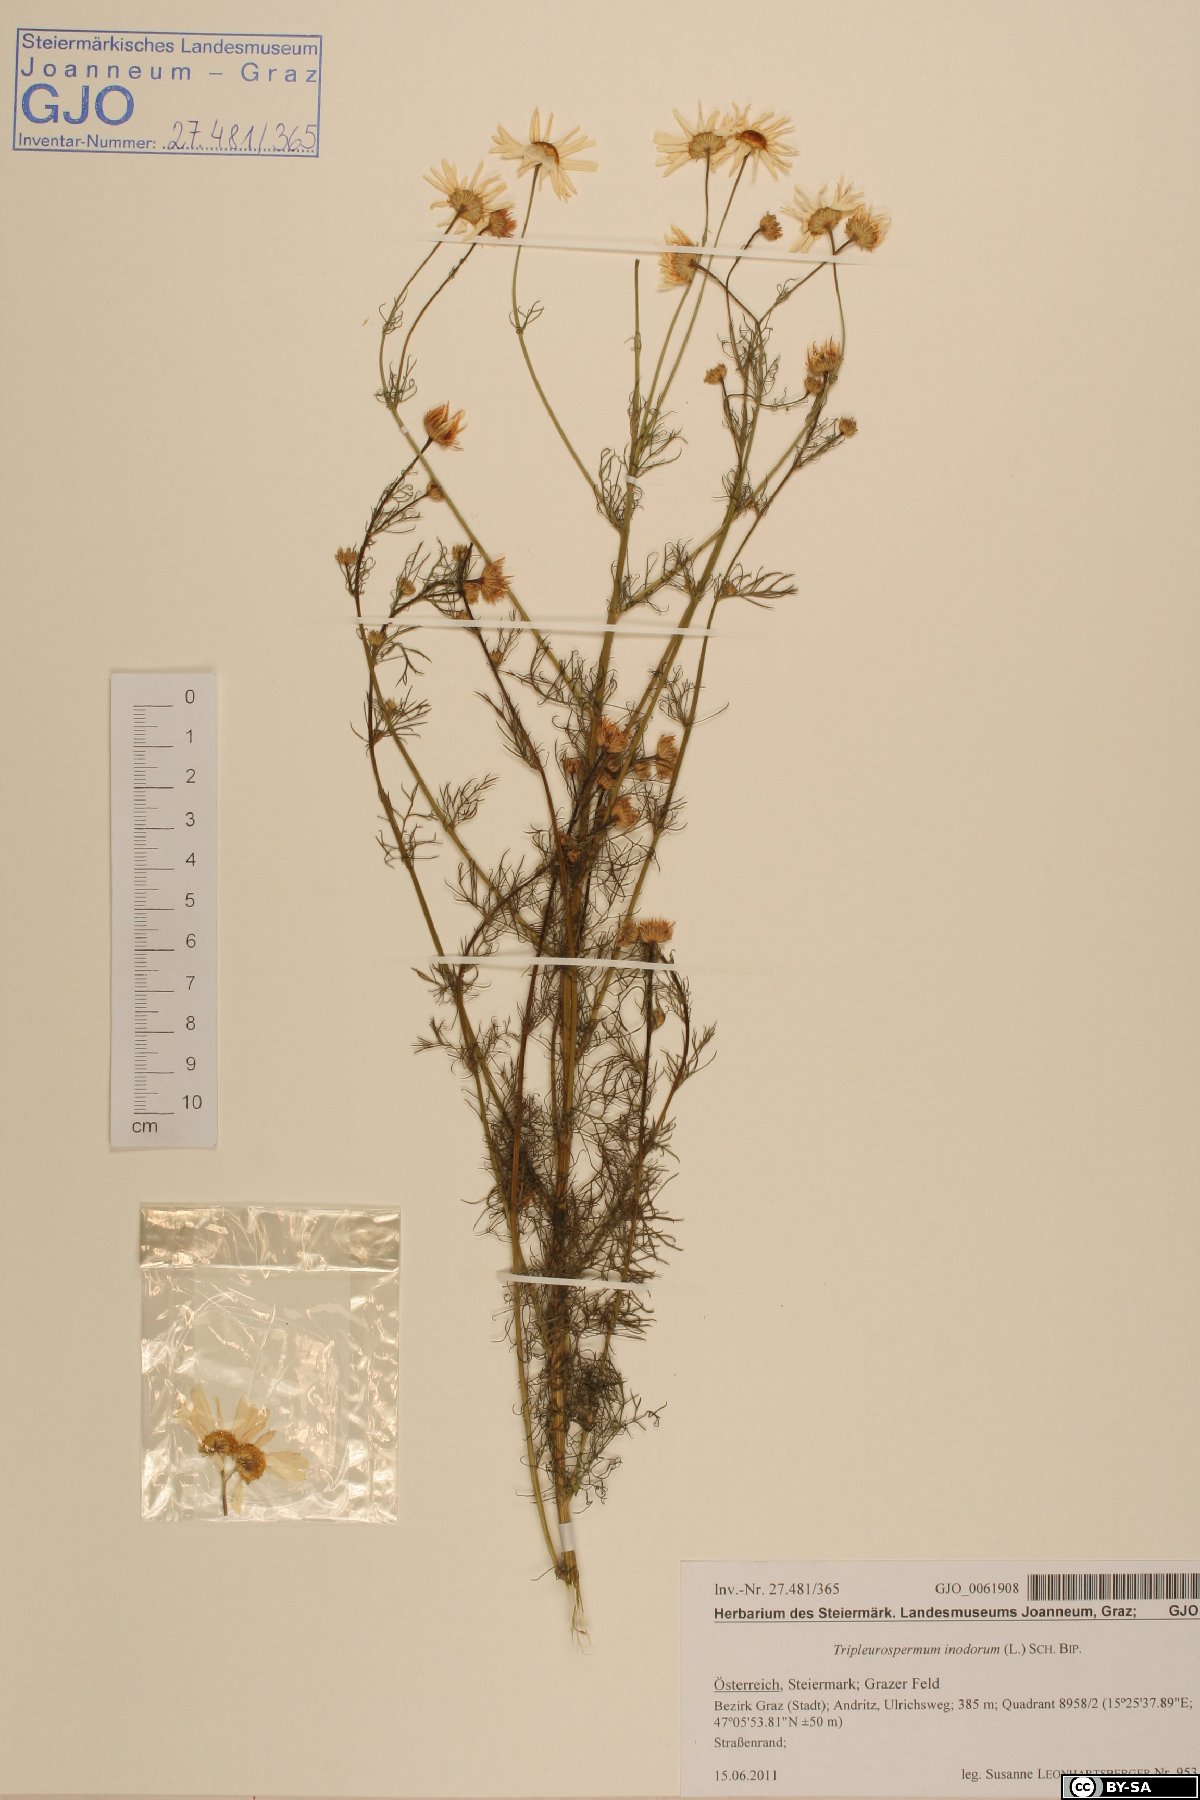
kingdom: Plantae
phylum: Tracheophyta
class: Magnoliopsida
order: Asterales
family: Asteraceae
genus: Tripleurospermum
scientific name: Tripleurospermum inodorum
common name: Scentless mayweed
